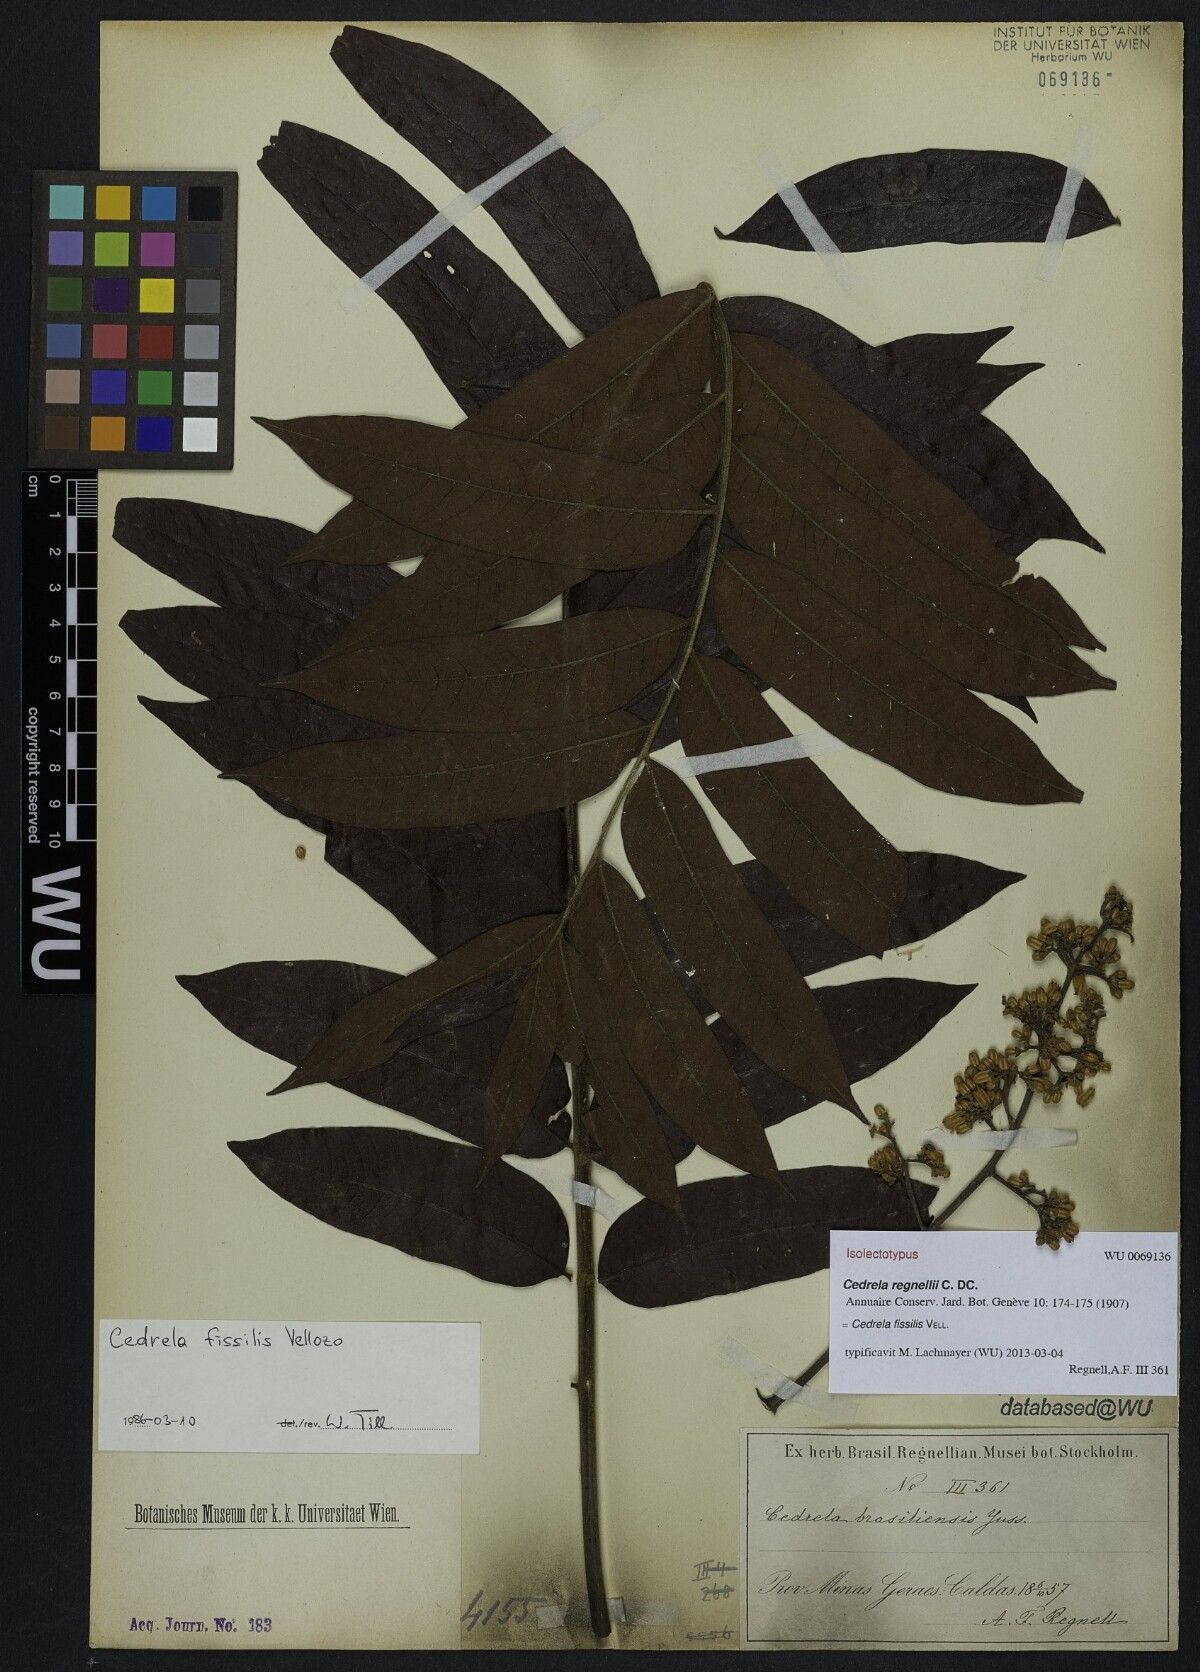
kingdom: Plantae
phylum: Tracheophyta
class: Magnoliopsida
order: Sapindales
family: Meliaceae
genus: Cedrela
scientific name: Cedrela fissilis
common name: Argentine cedar
